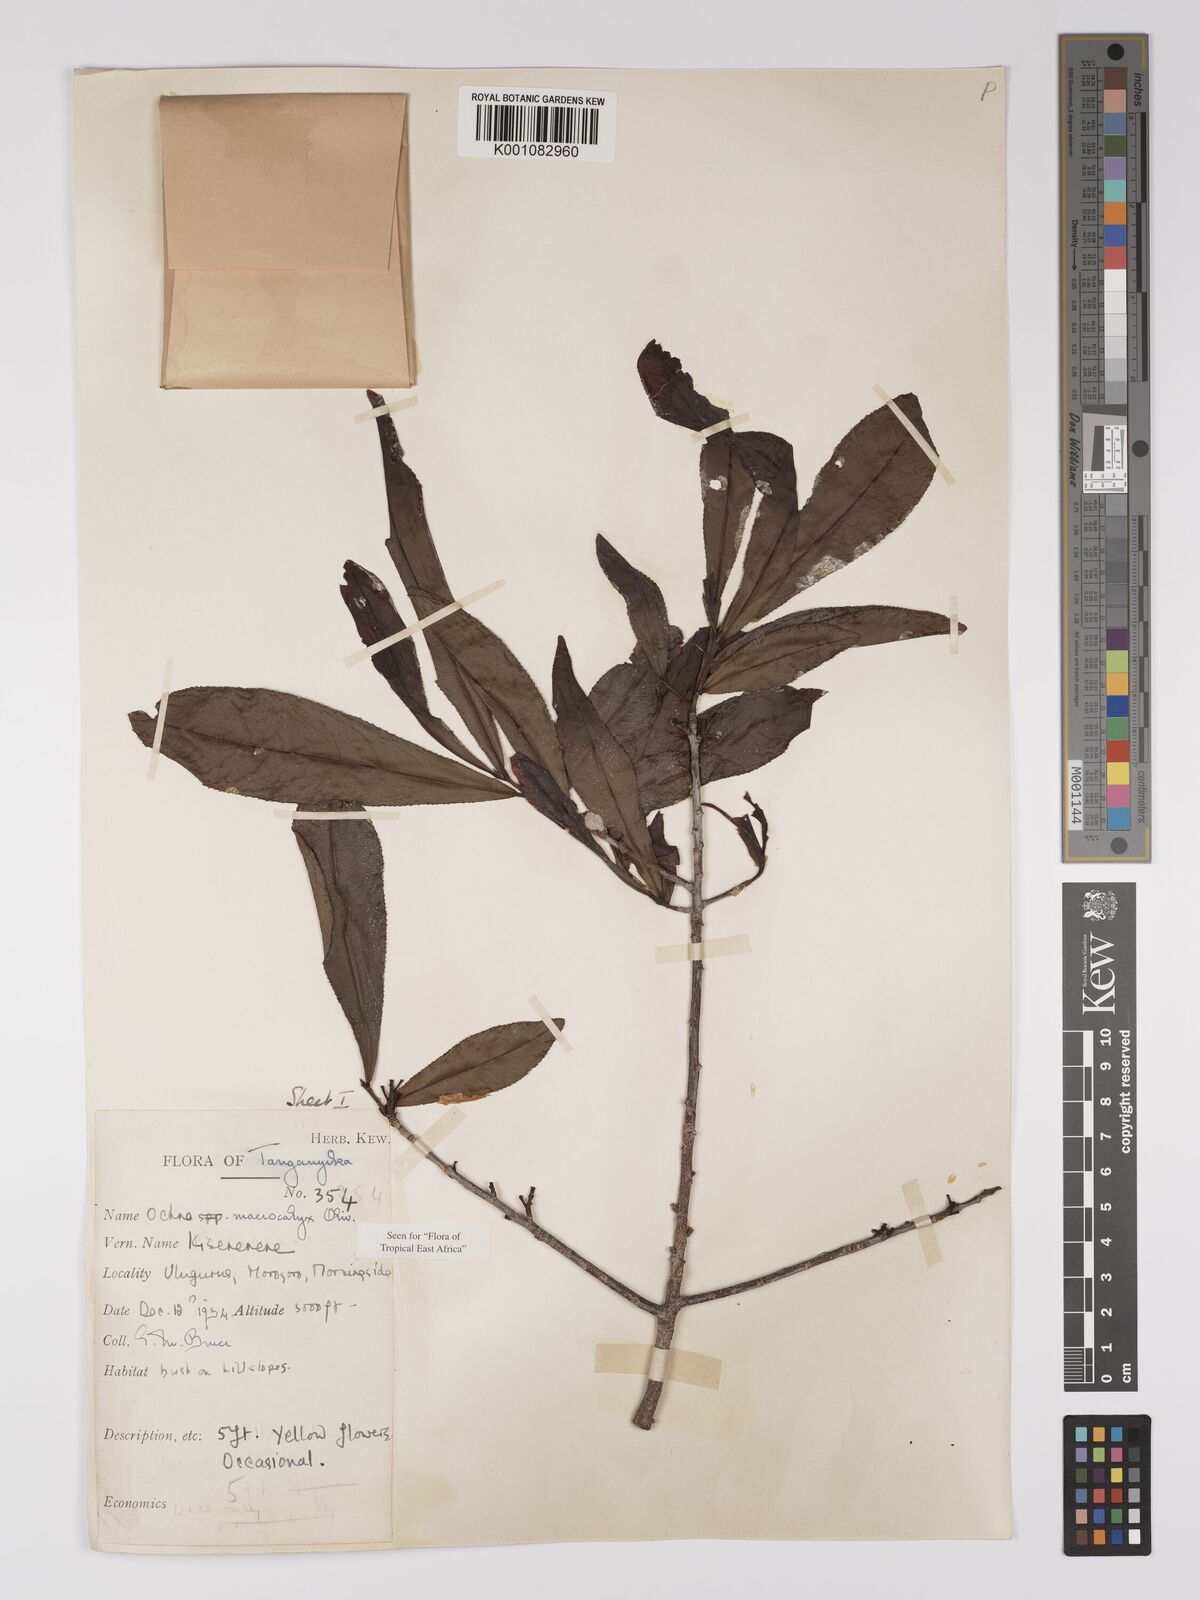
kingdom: Plantae
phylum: Tracheophyta
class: Magnoliopsida
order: Malpighiales
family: Ochnaceae
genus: Ochna
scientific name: Ochna macrocalyx
